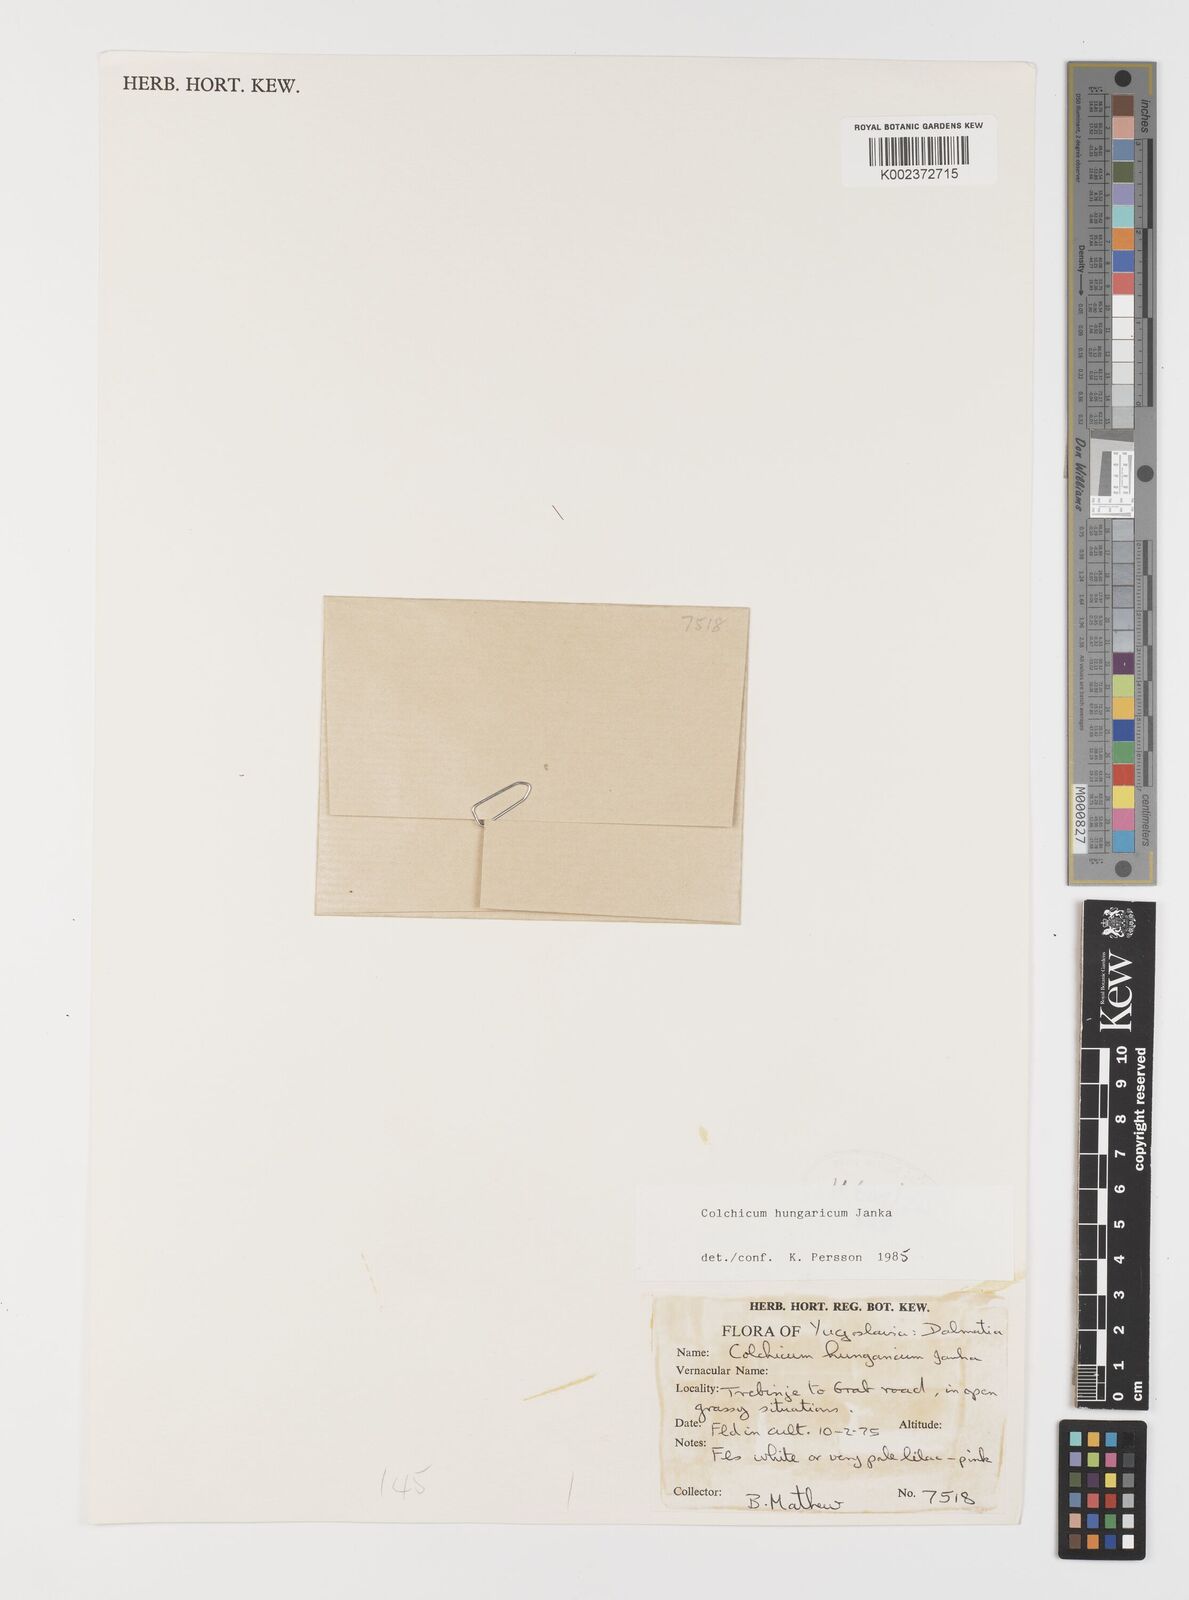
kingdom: Plantae
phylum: Tracheophyta
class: Liliopsida
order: Liliales
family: Colchicaceae
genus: Colchicum
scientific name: Colchicum hungaricum
